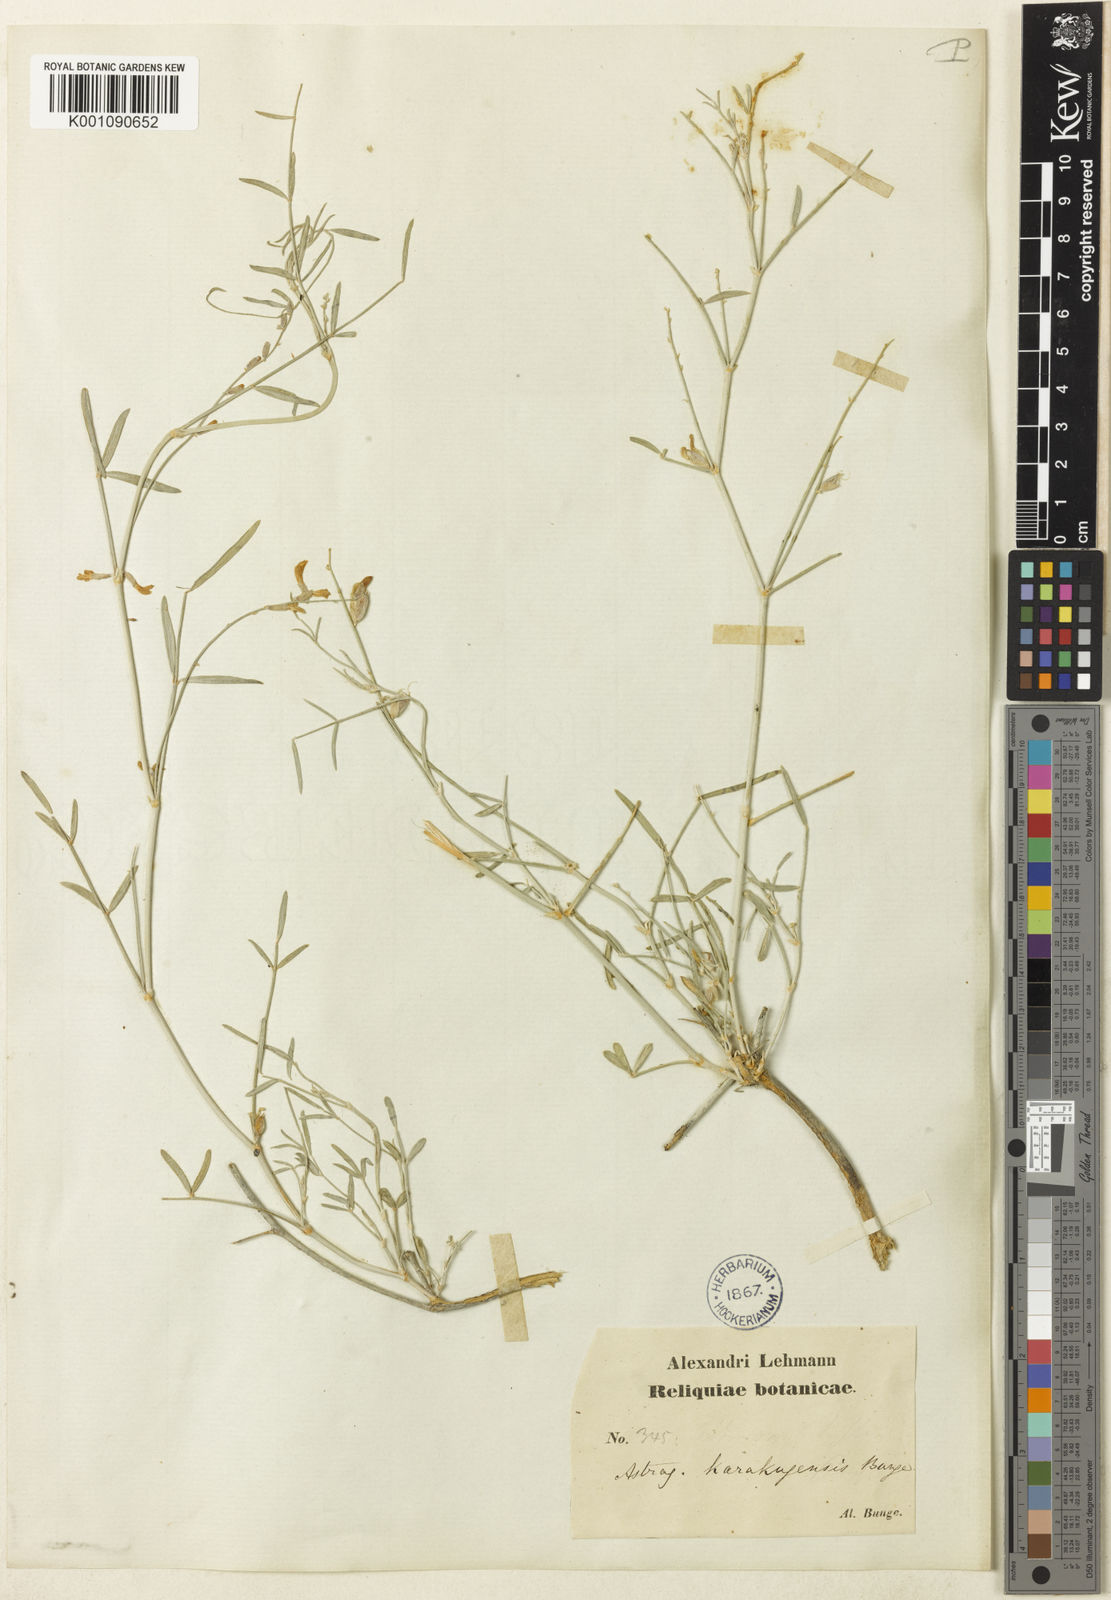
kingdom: Plantae
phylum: Tracheophyta
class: Magnoliopsida
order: Fabales
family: Fabaceae
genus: Astragalus
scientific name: Astragalus
